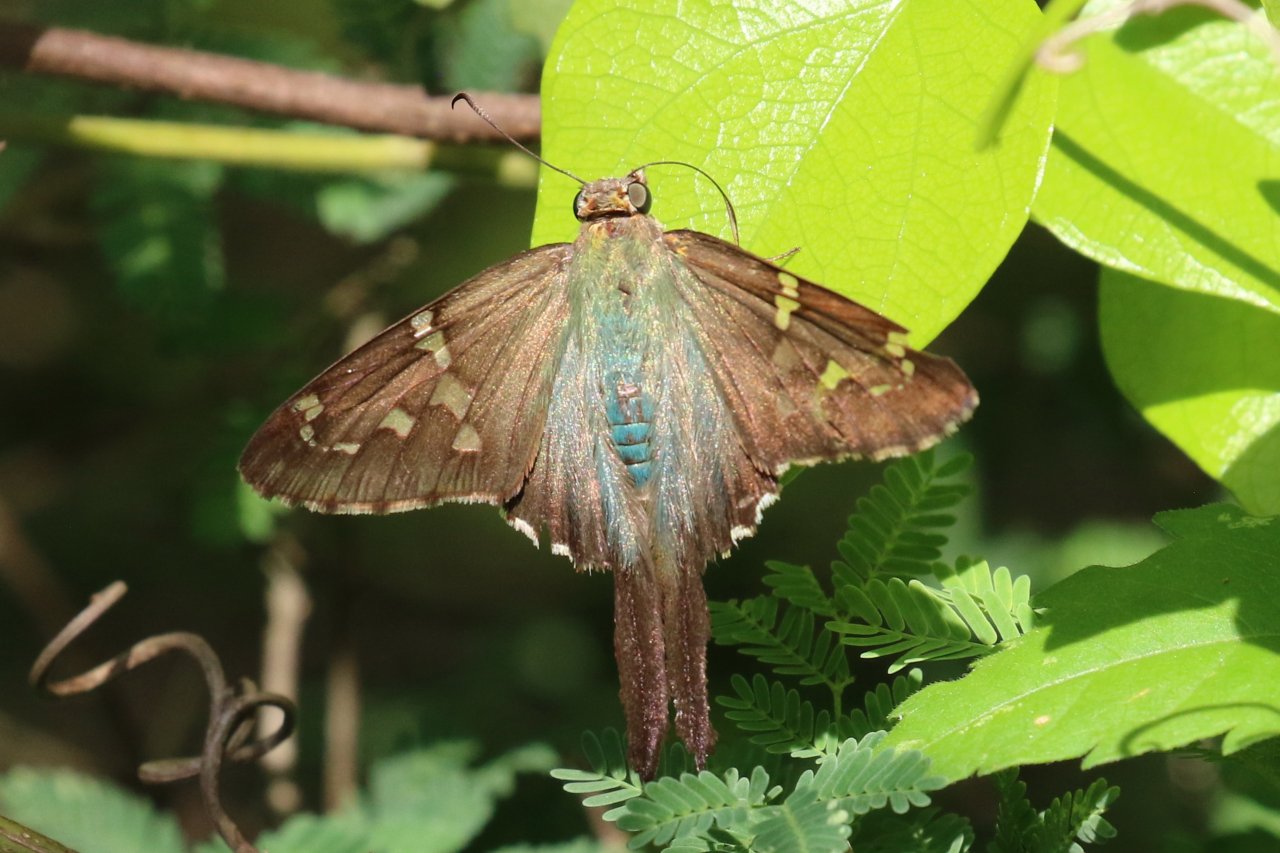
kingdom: Animalia
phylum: Arthropoda
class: Insecta
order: Lepidoptera
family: Hesperiidae
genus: Urbanus
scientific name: Urbanus proteus
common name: Long-tailed Skipper
